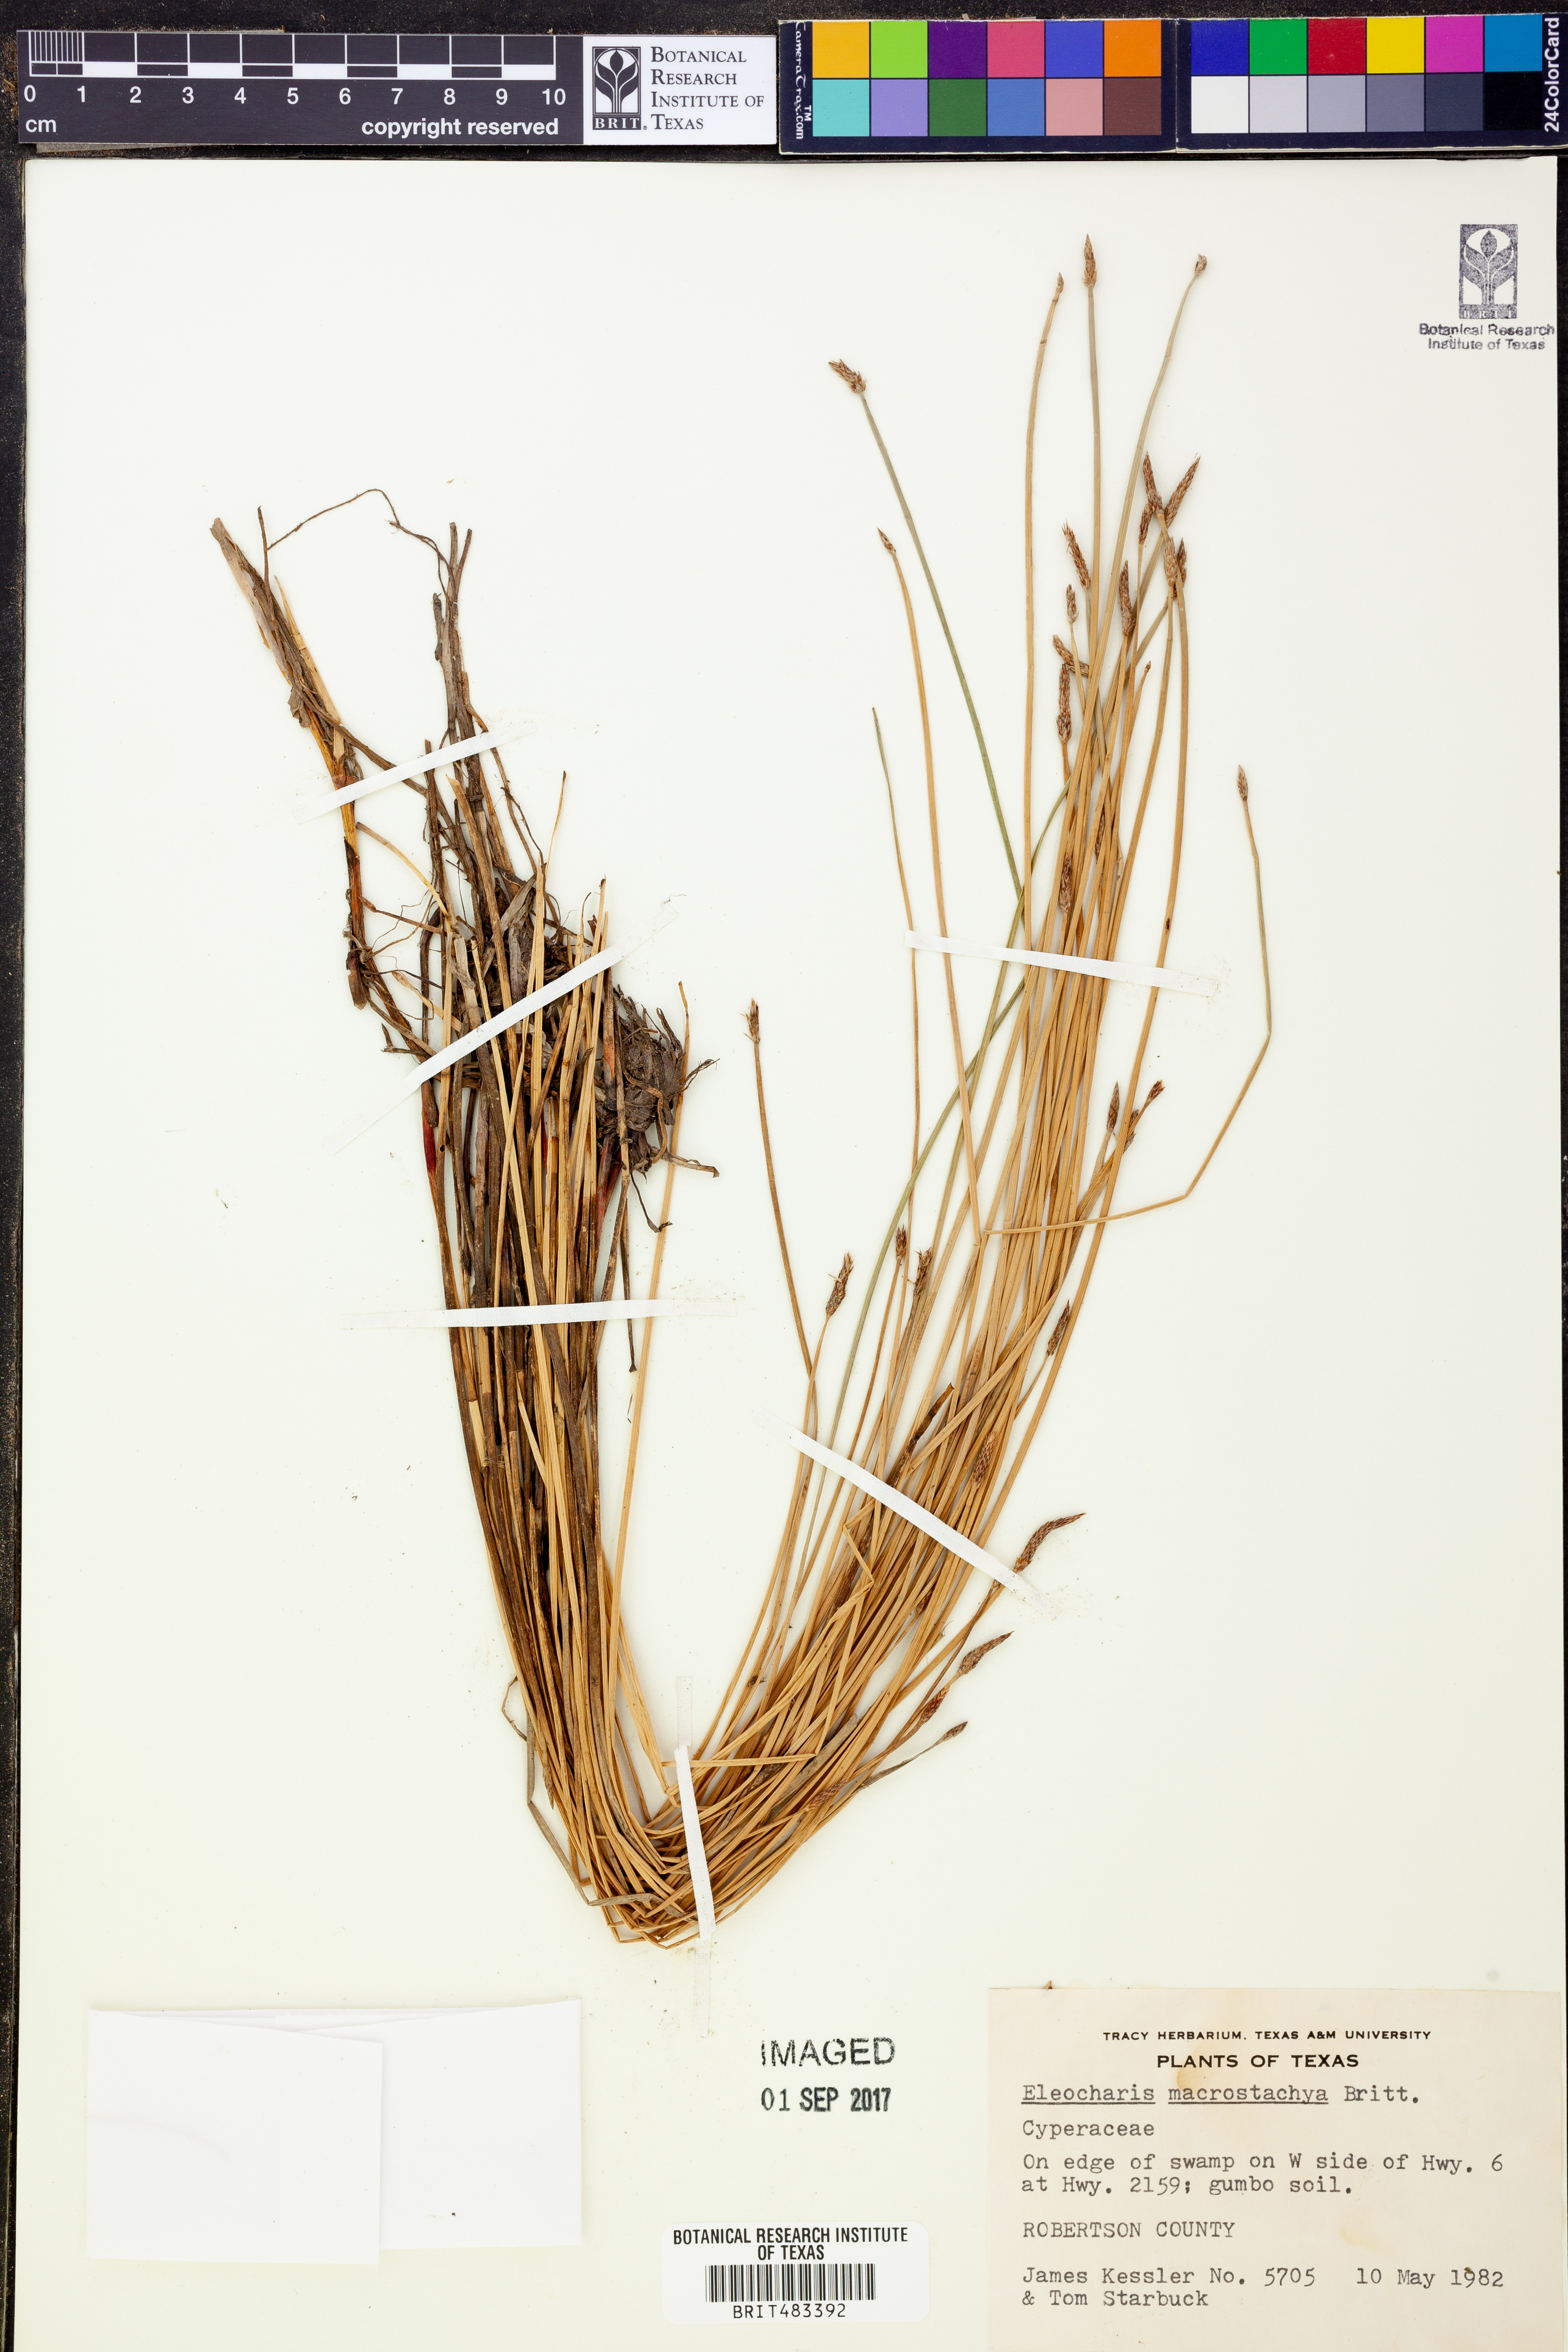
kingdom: Plantae
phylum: Tracheophyta
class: Liliopsida
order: Poales
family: Cyperaceae
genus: Eleocharis
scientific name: Eleocharis macrostachya
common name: Pale spikerush
